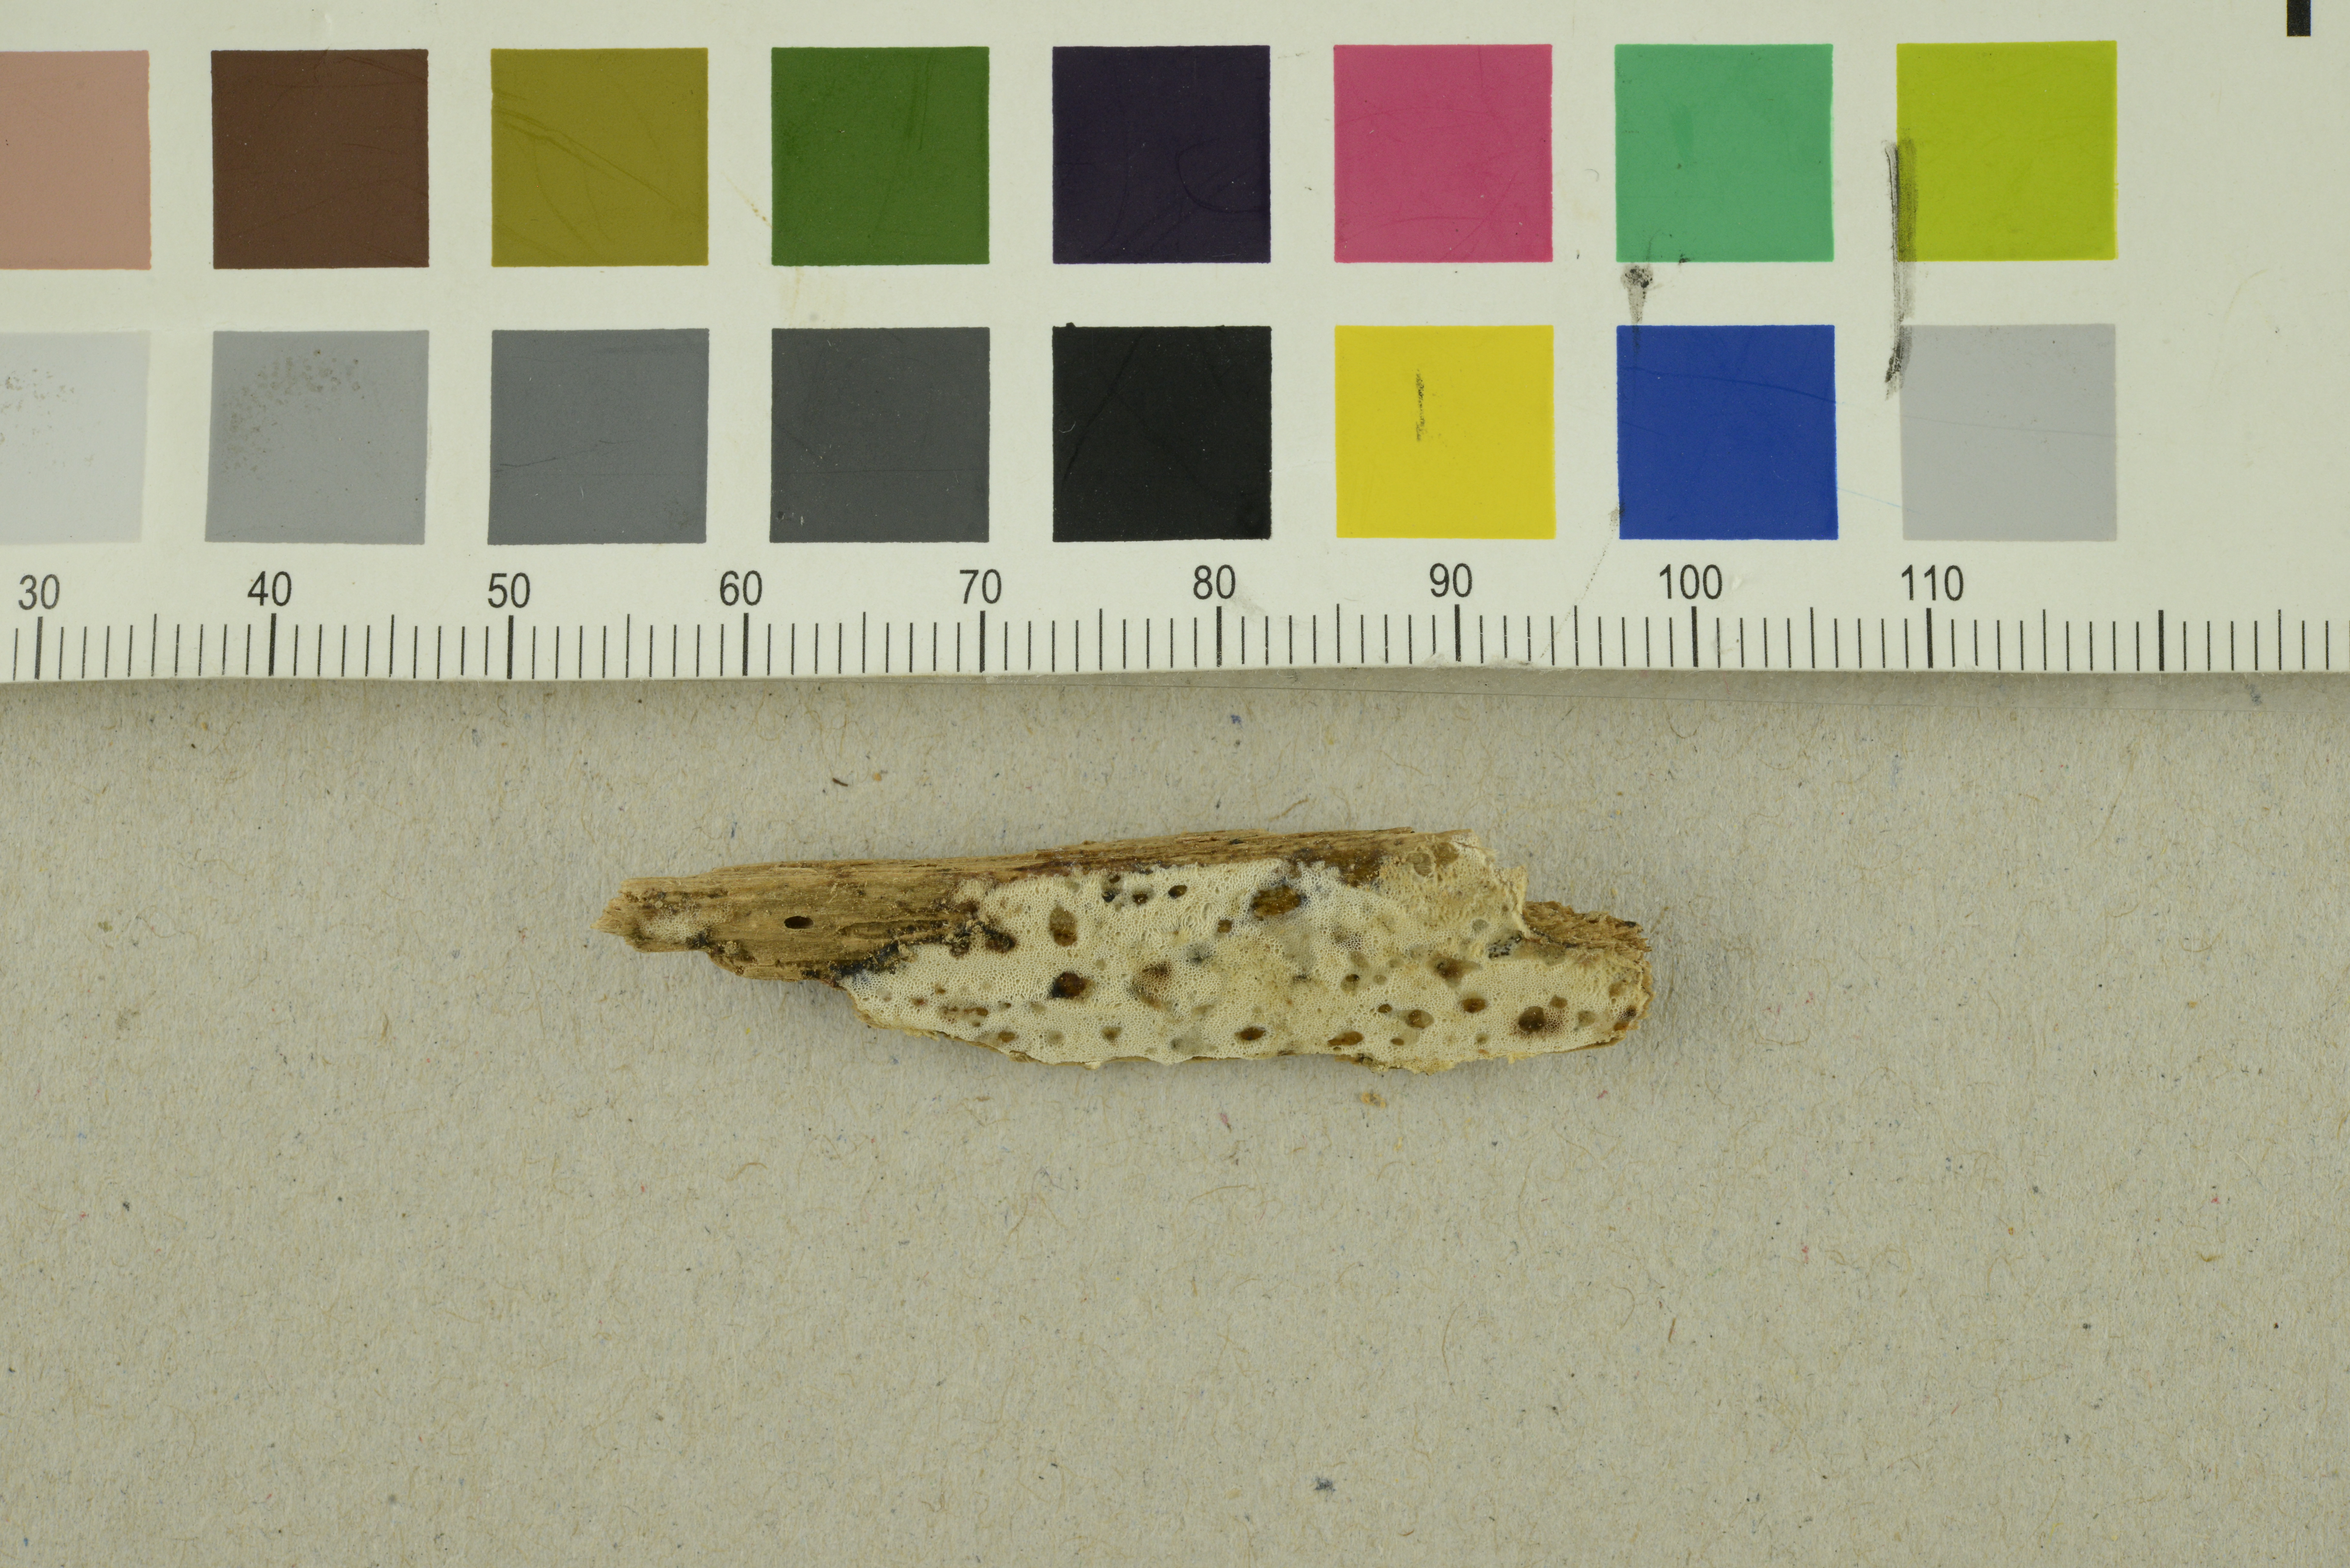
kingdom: Fungi
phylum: Basidiomycota
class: Agaricomycetes
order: Polyporales
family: Meruliaceae
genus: Ceriporiopsis
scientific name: Ceriporiopsis jelicii
